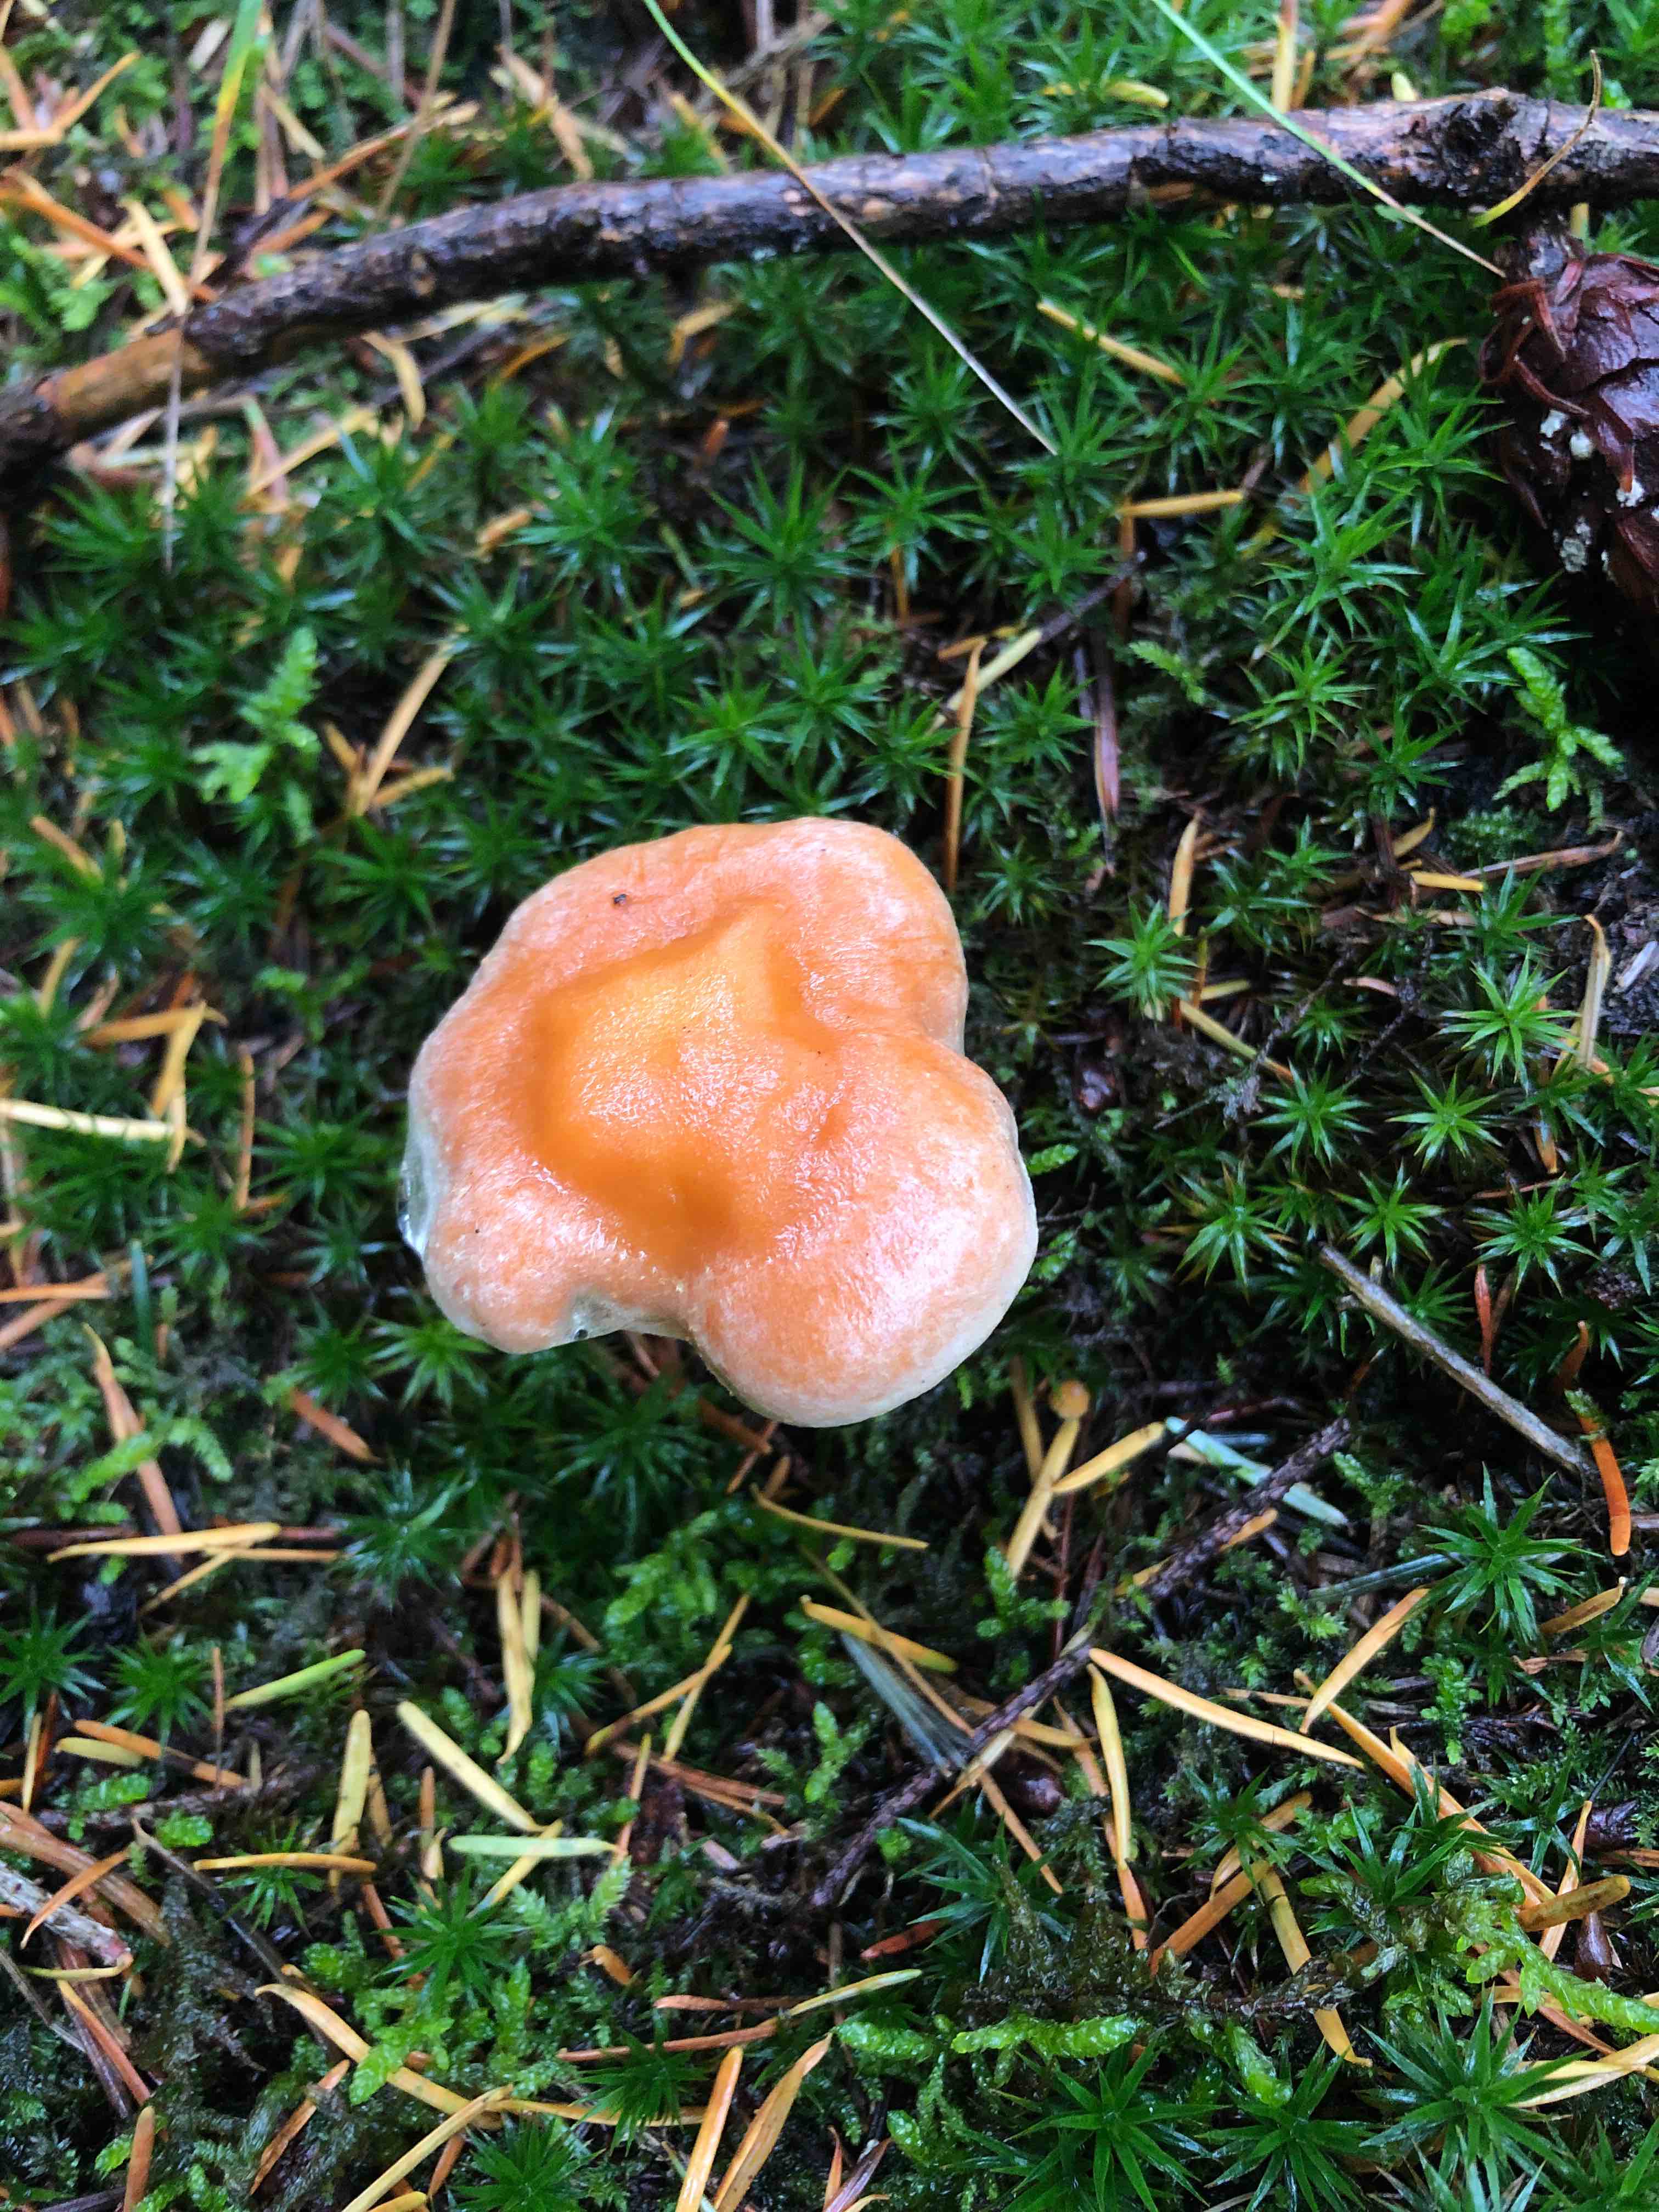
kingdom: Fungi
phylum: Basidiomycota
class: Agaricomycetes
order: Agaricales
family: Strophariaceae
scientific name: Strophariaceae
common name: bredbladfamilien
